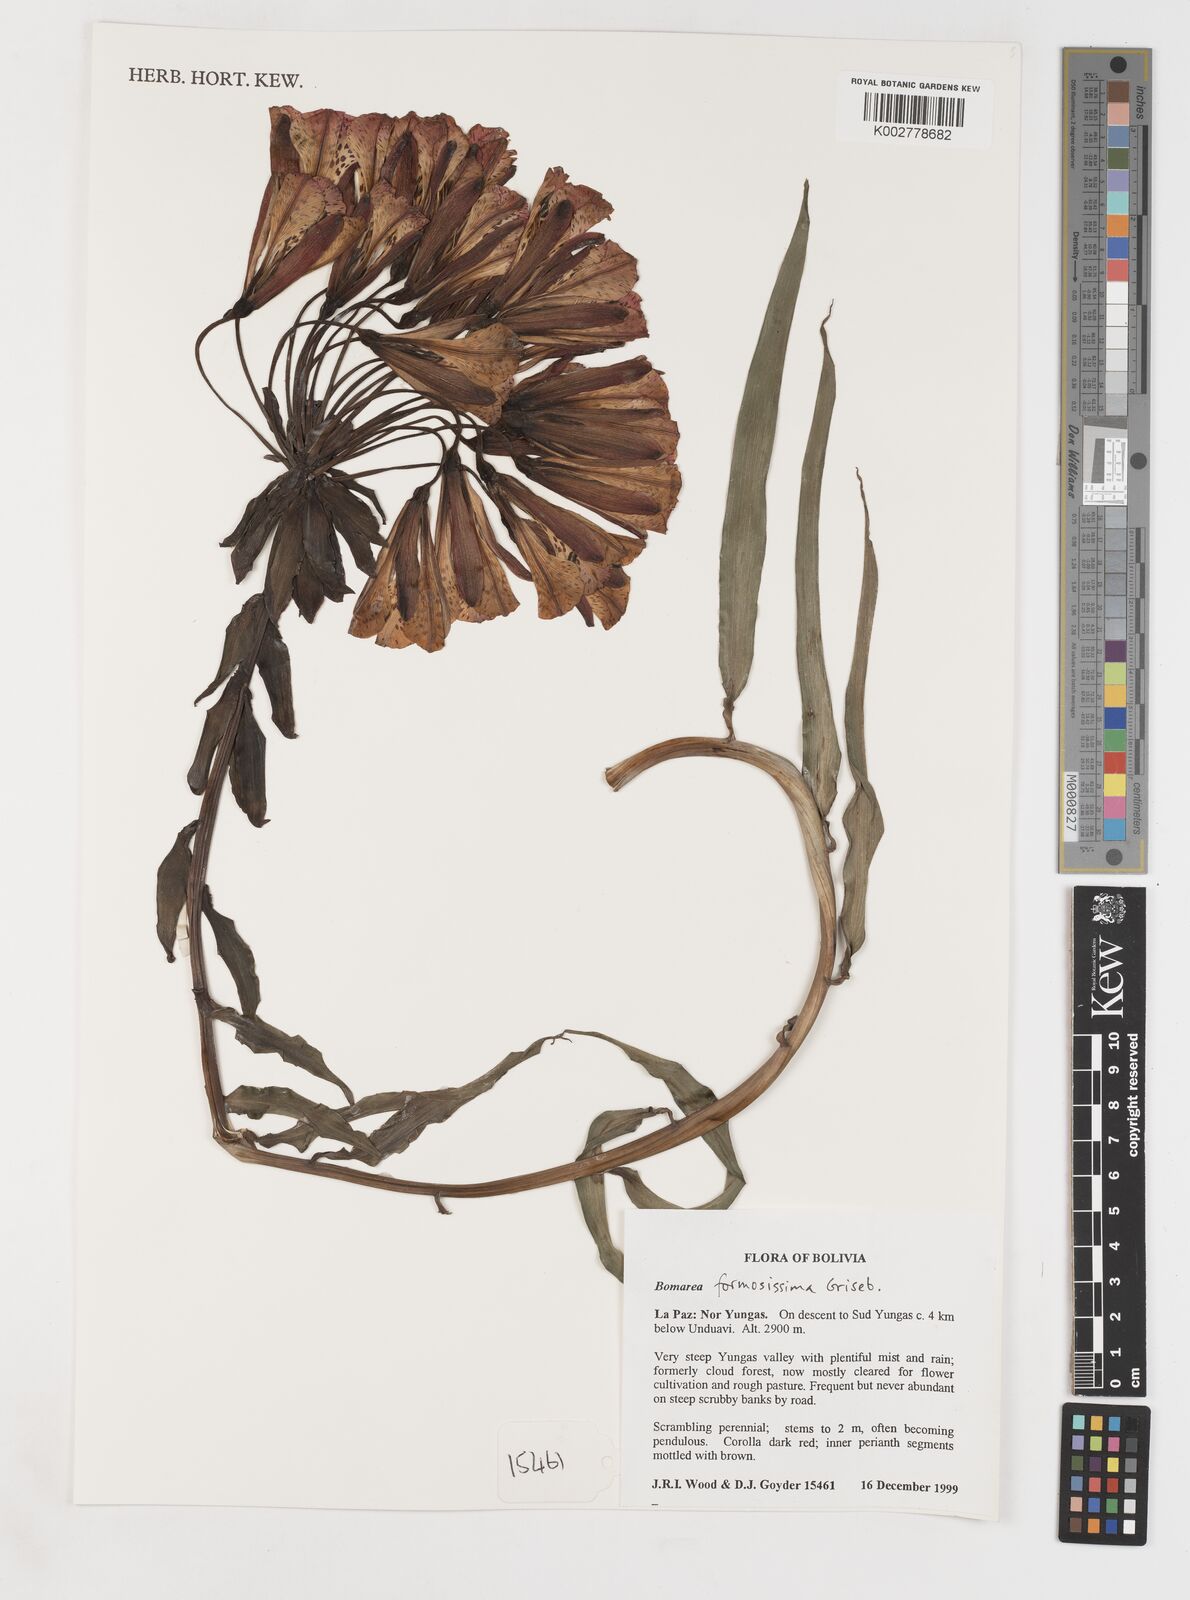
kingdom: Plantae
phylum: Tracheophyta
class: Liliopsida
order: Liliales
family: Alstroemeriaceae
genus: Bomarea
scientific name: Bomarea formosissima
